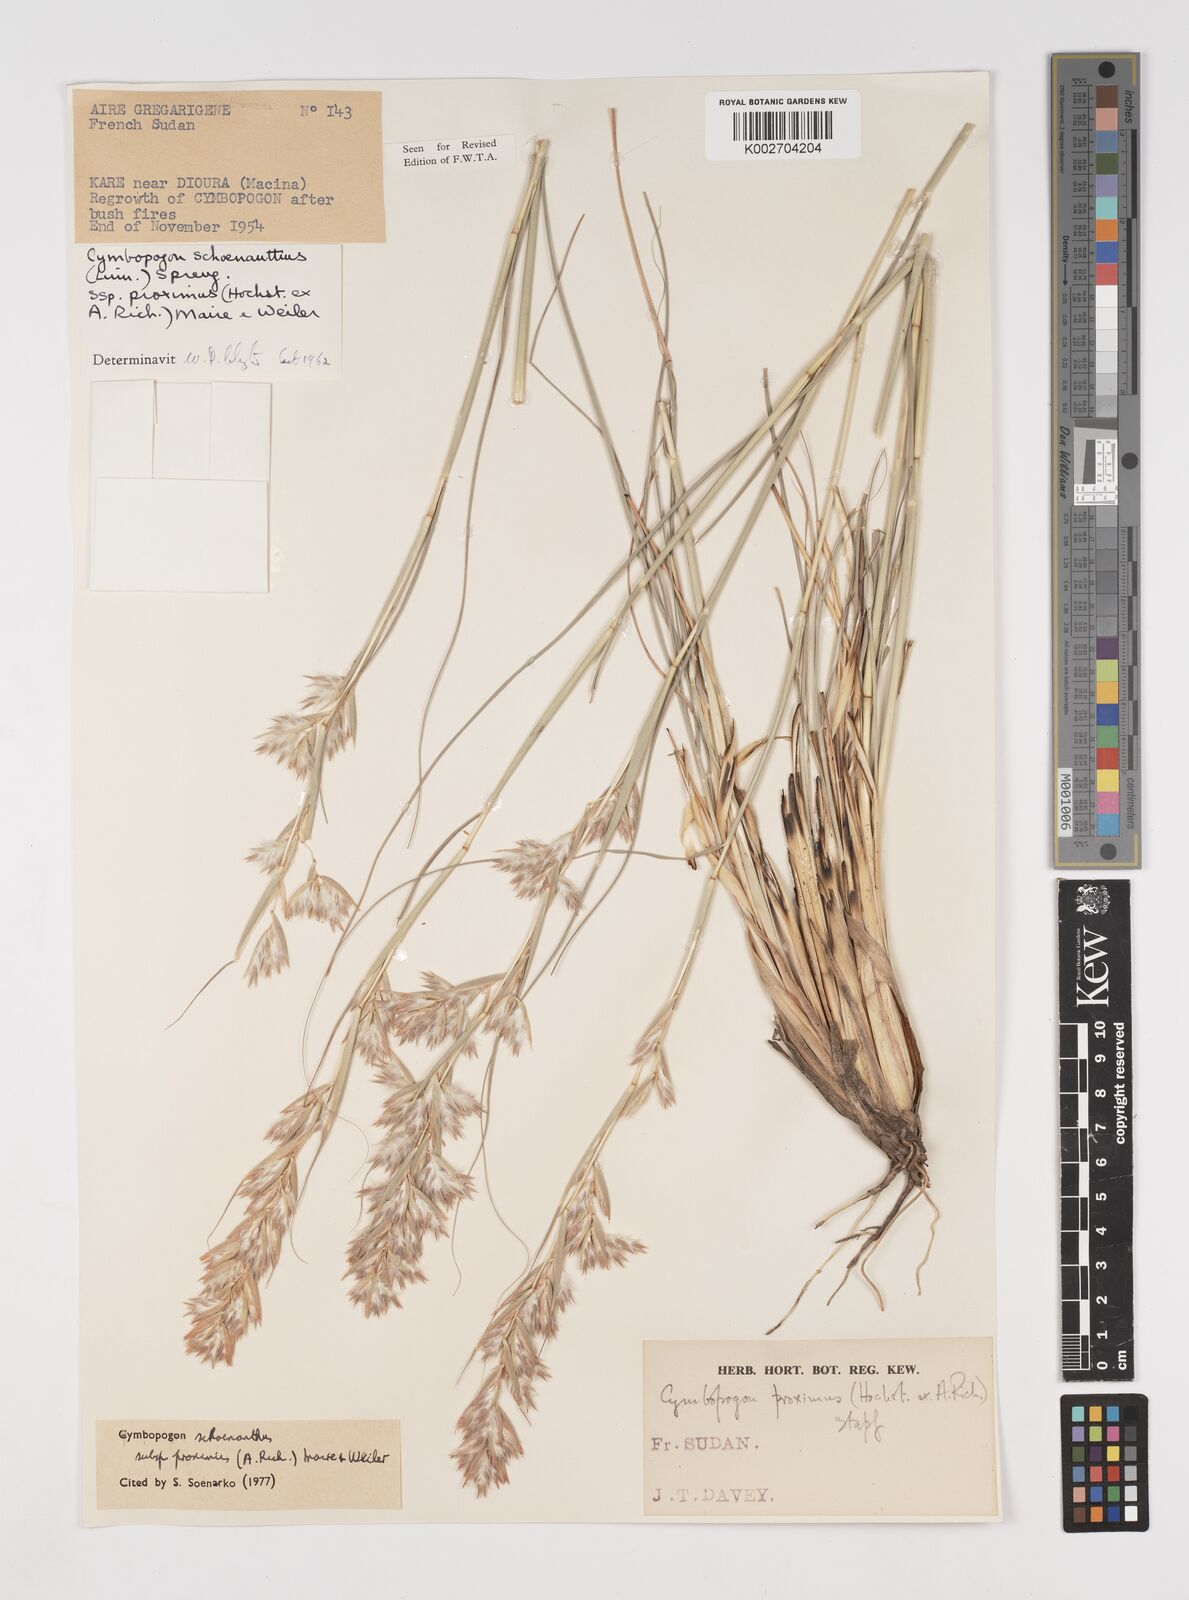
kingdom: Plantae
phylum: Tracheophyta
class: Liliopsida
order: Poales
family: Poaceae
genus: Cymbopogon
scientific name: Cymbopogon schoenanthus
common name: Geranium grass
